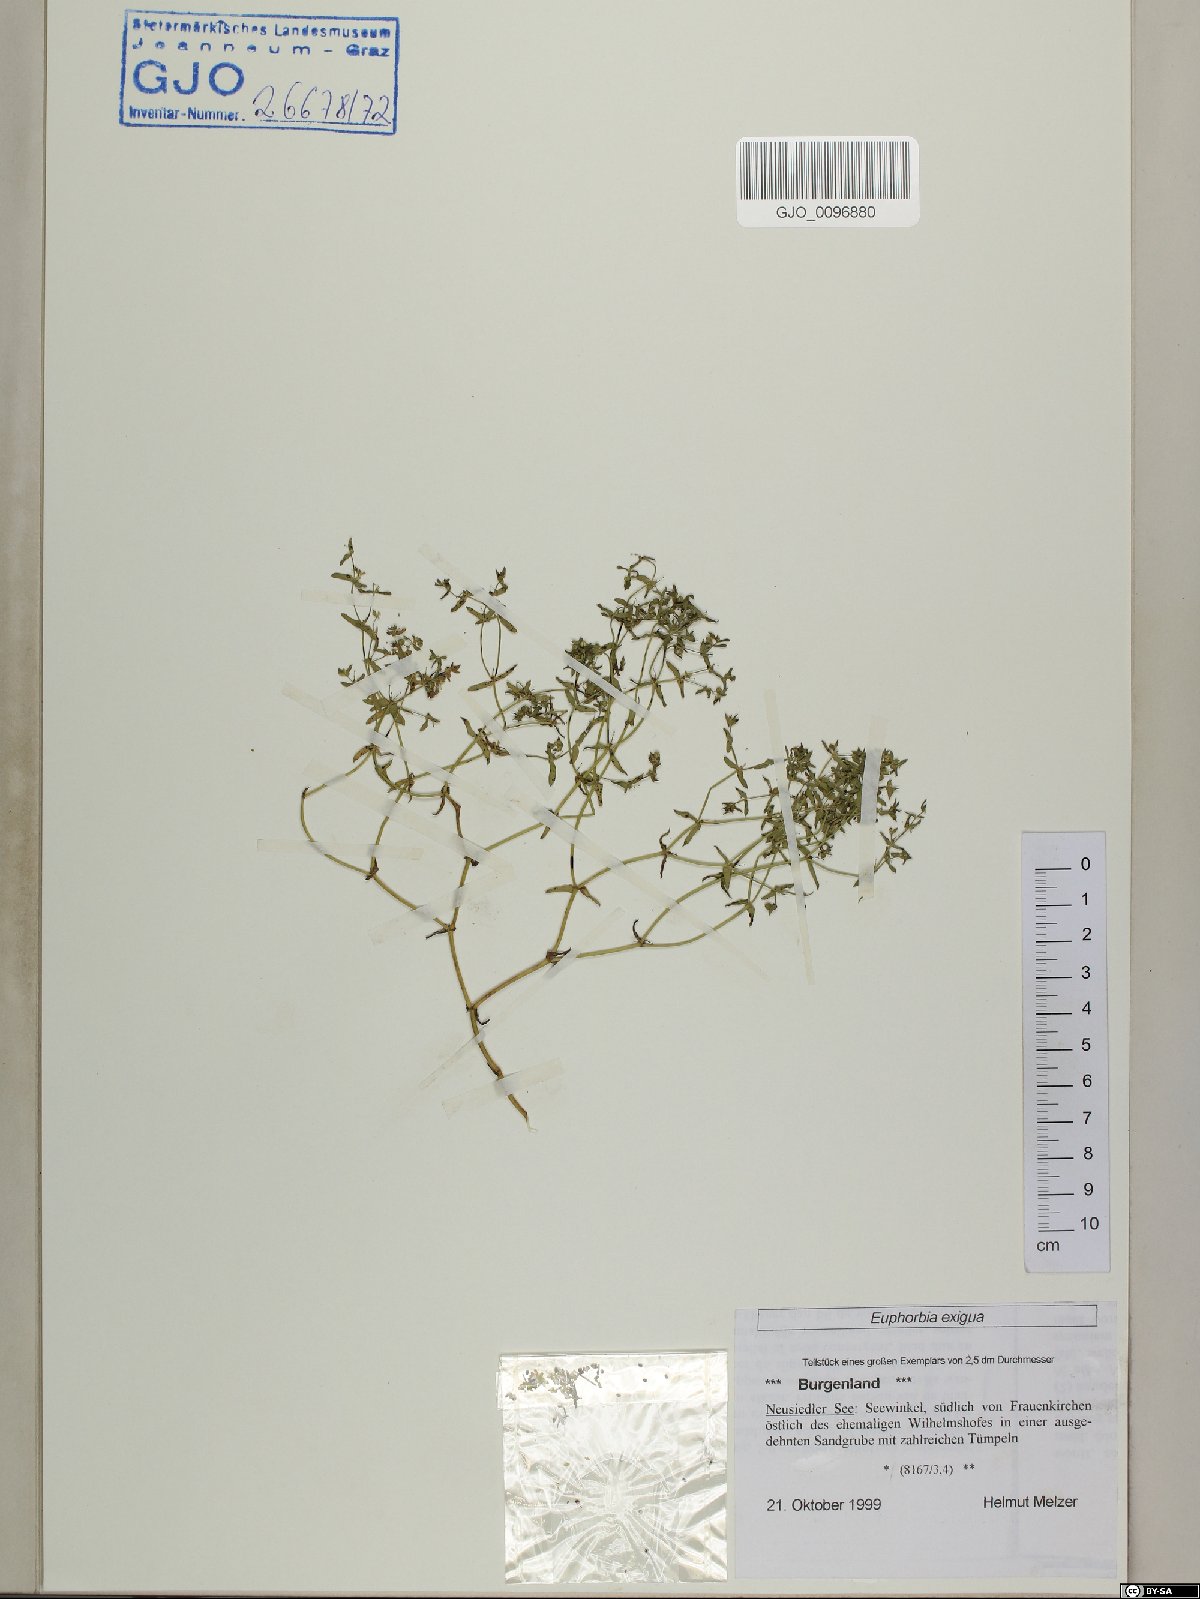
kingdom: Plantae
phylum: Tracheophyta
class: Magnoliopsida
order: Malpighiales
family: Euphorbiaceae
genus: Euphorbia
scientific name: Euphorbia exigua
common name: Dwarf spurge
